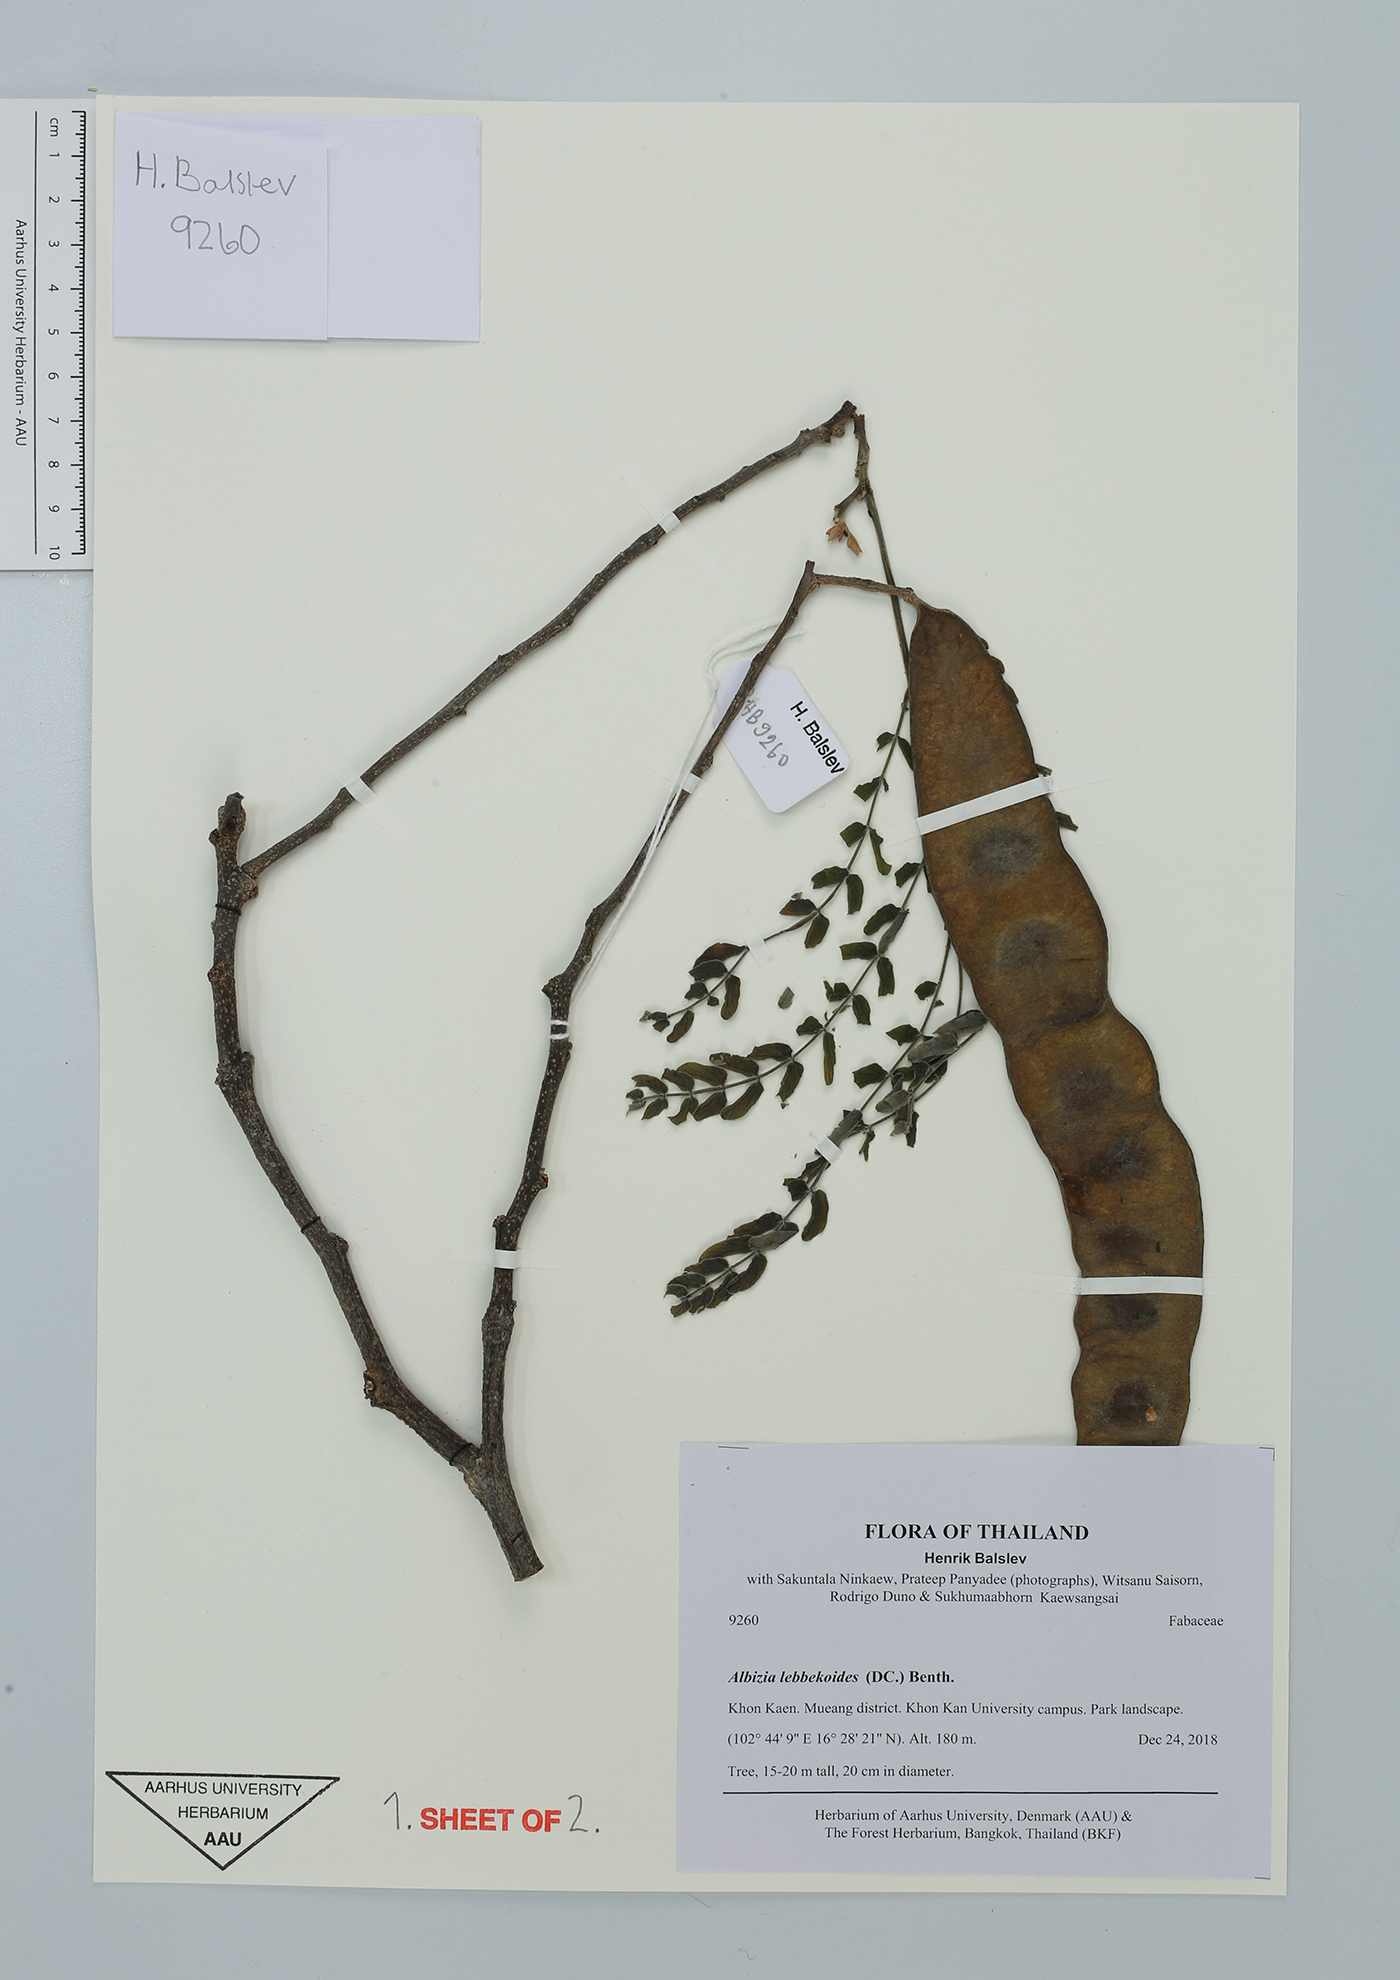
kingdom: Plantae
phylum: Tracheophyta
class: Magnoliopsida
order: Fabales
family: Fabaceae
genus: Albizia
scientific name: Albizia lebbekoides
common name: Indian albizia
